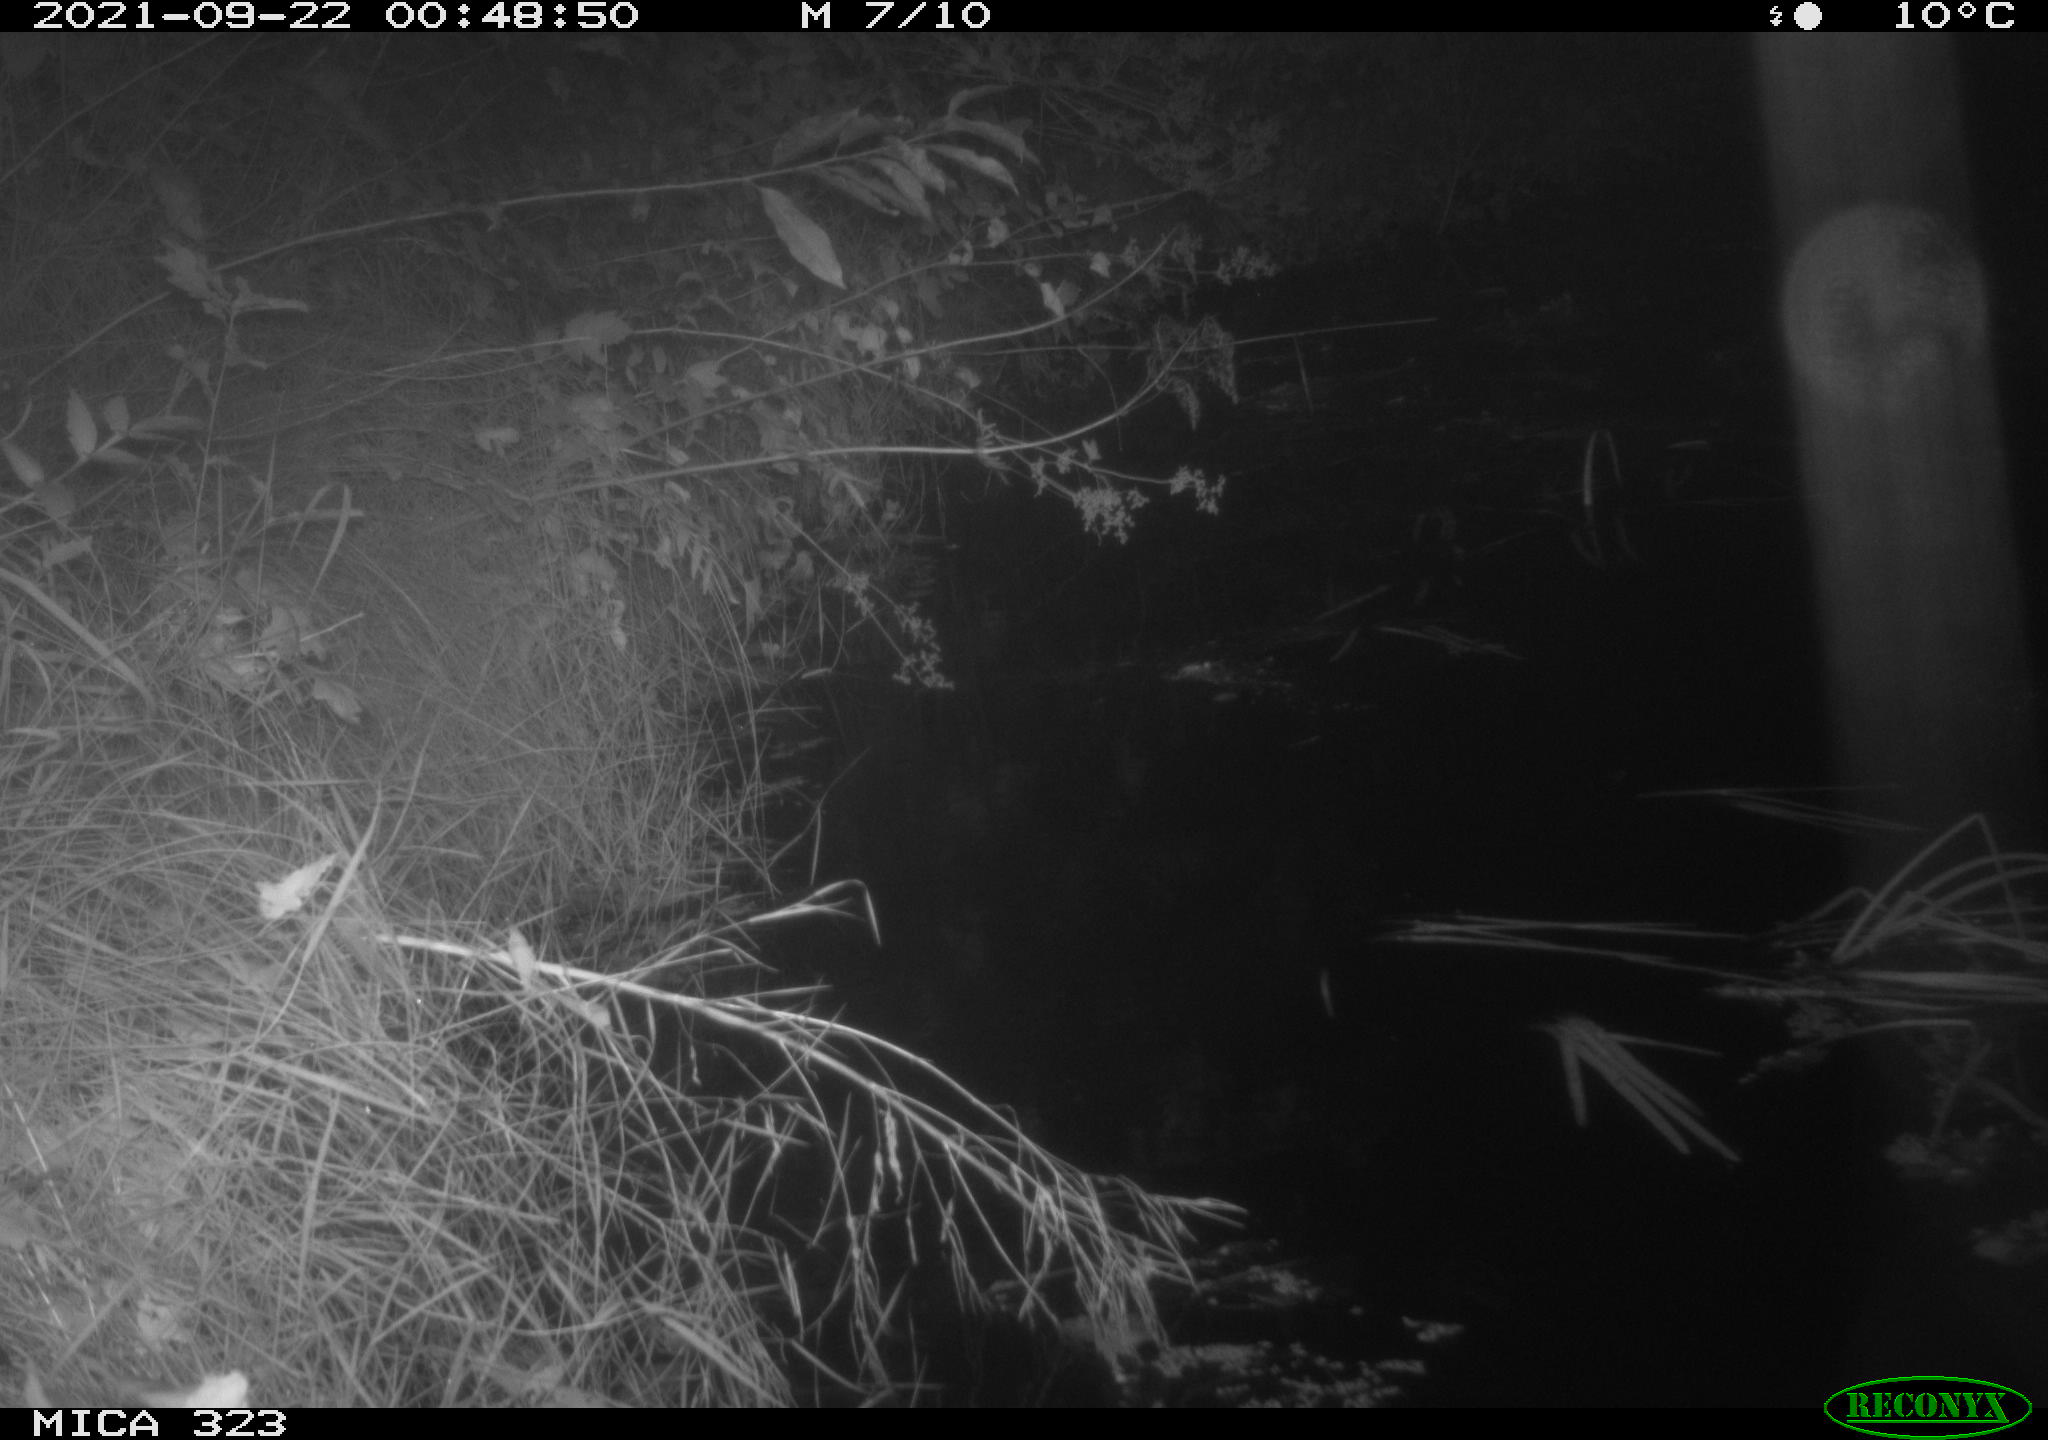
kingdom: Animalia
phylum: Chordata
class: Aves
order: Anseriformes
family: Anatidae
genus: Anas
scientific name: Anas
